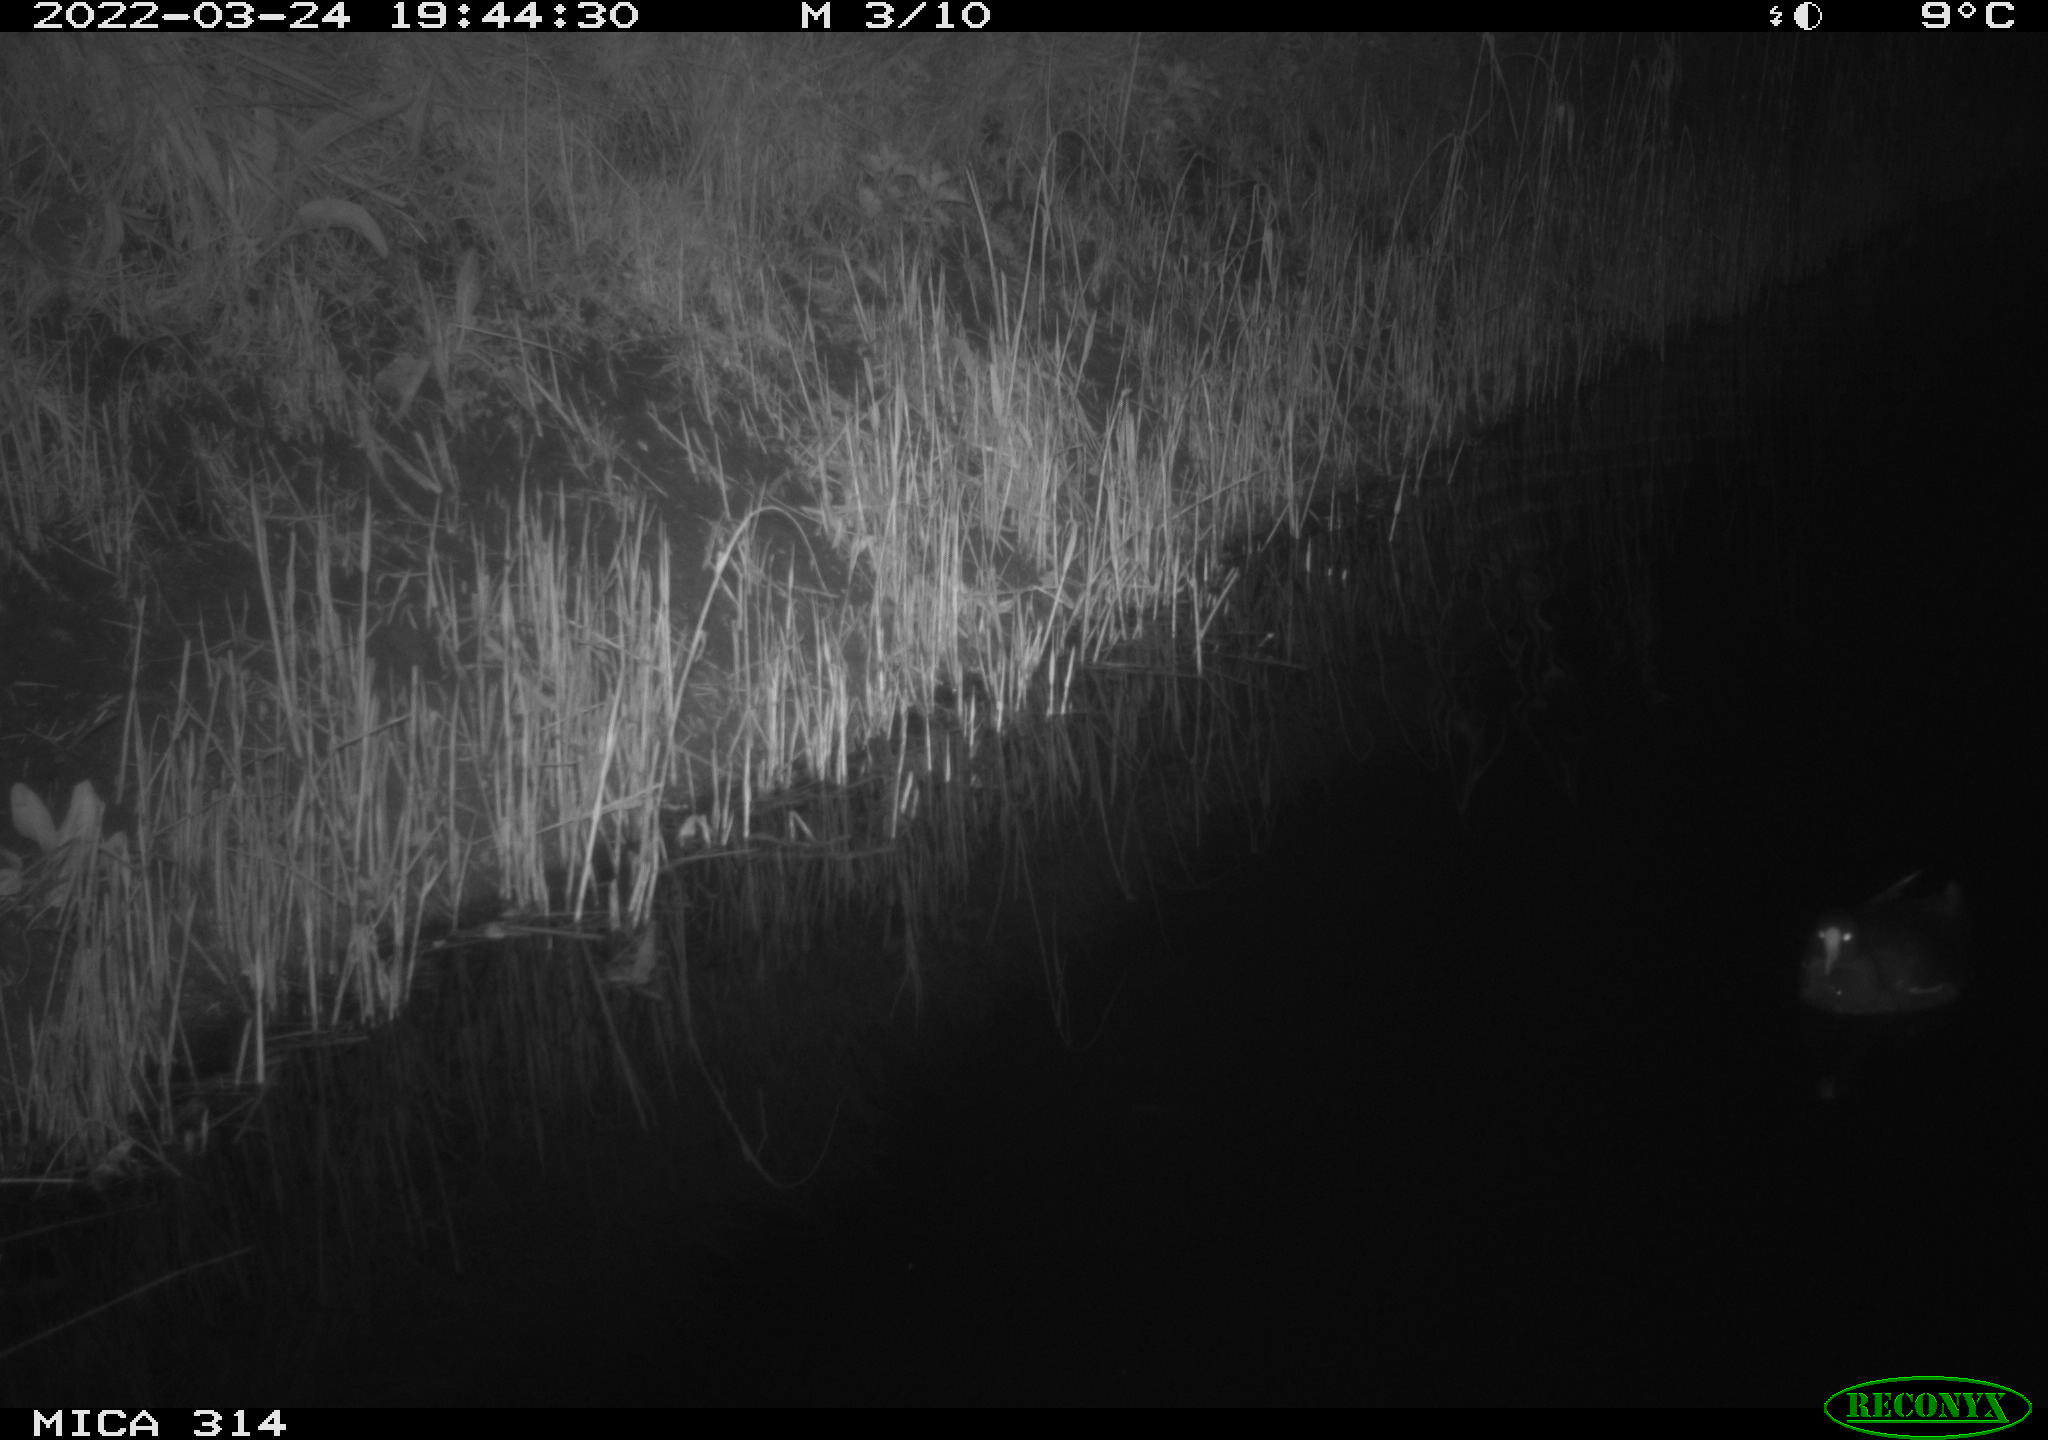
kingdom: Animalia
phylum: Chordata
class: Aves
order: Gruiformes
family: Rallidae
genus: Gallinula
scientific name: Gallinula chloropus
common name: Common moorhen
